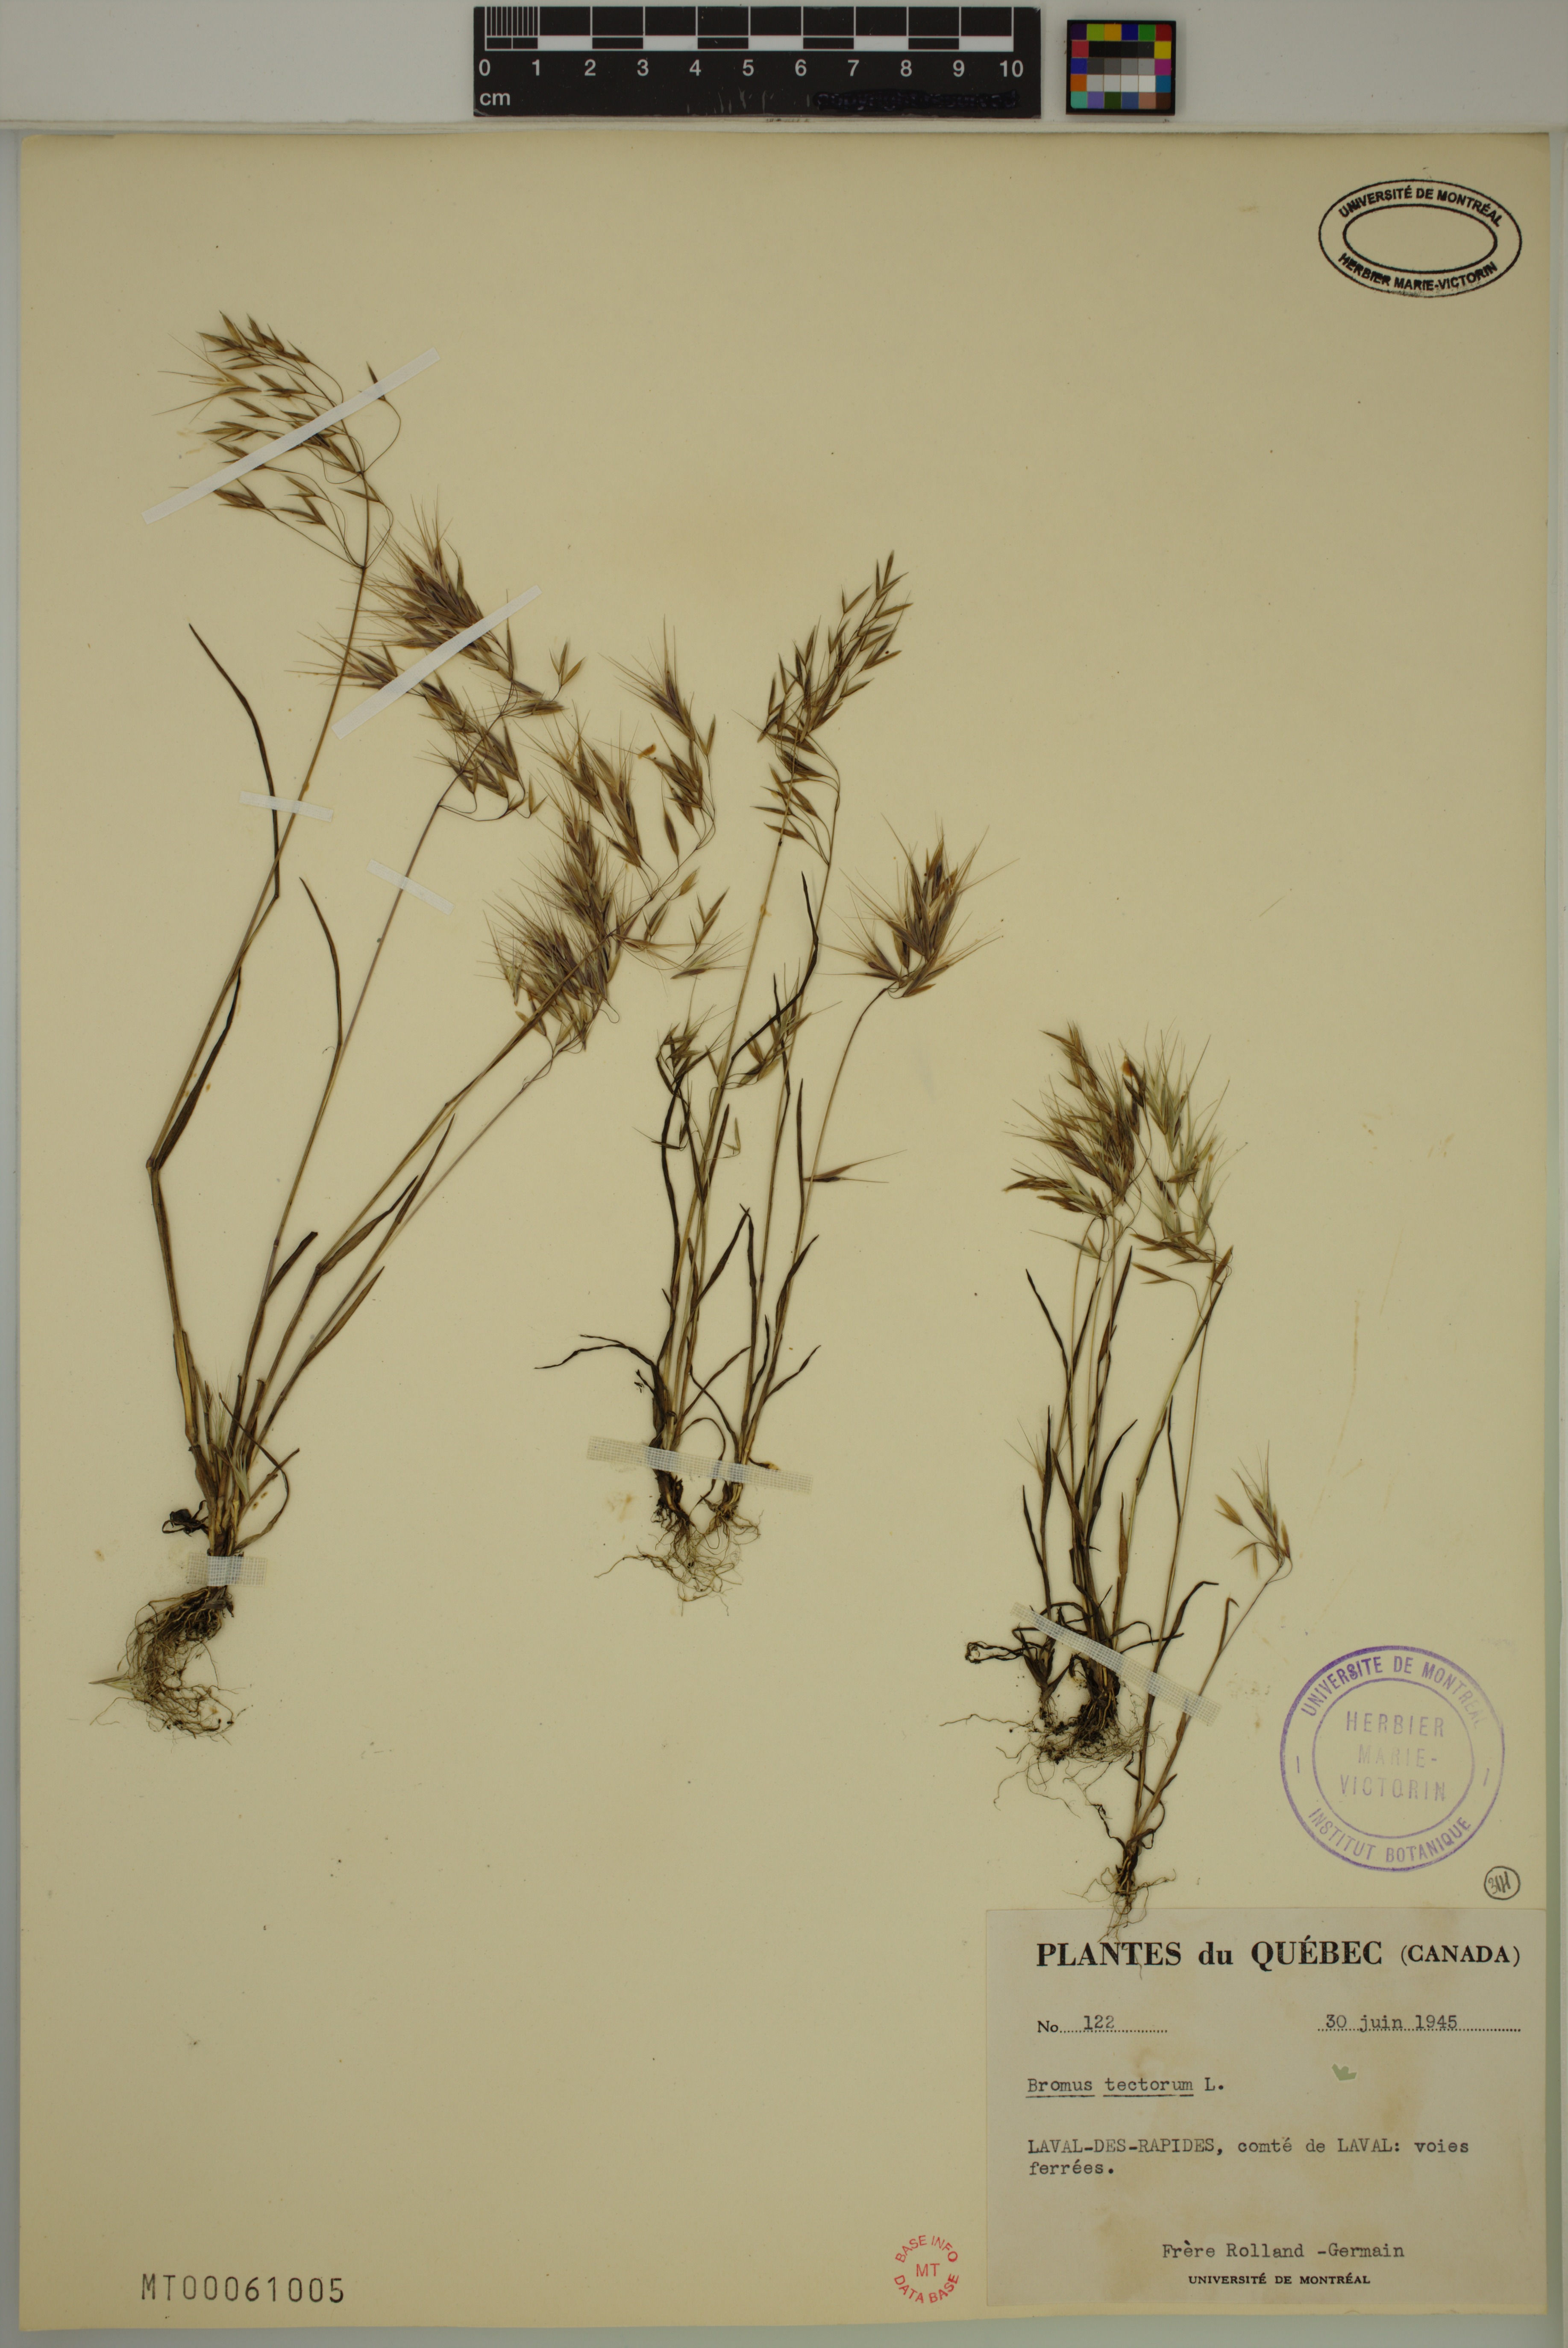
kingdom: Plantae
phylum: Tracheophyta
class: Liliopsida
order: Poales
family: Poaceae
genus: Bromus
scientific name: Bromus tectorum
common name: Cheatgrass
